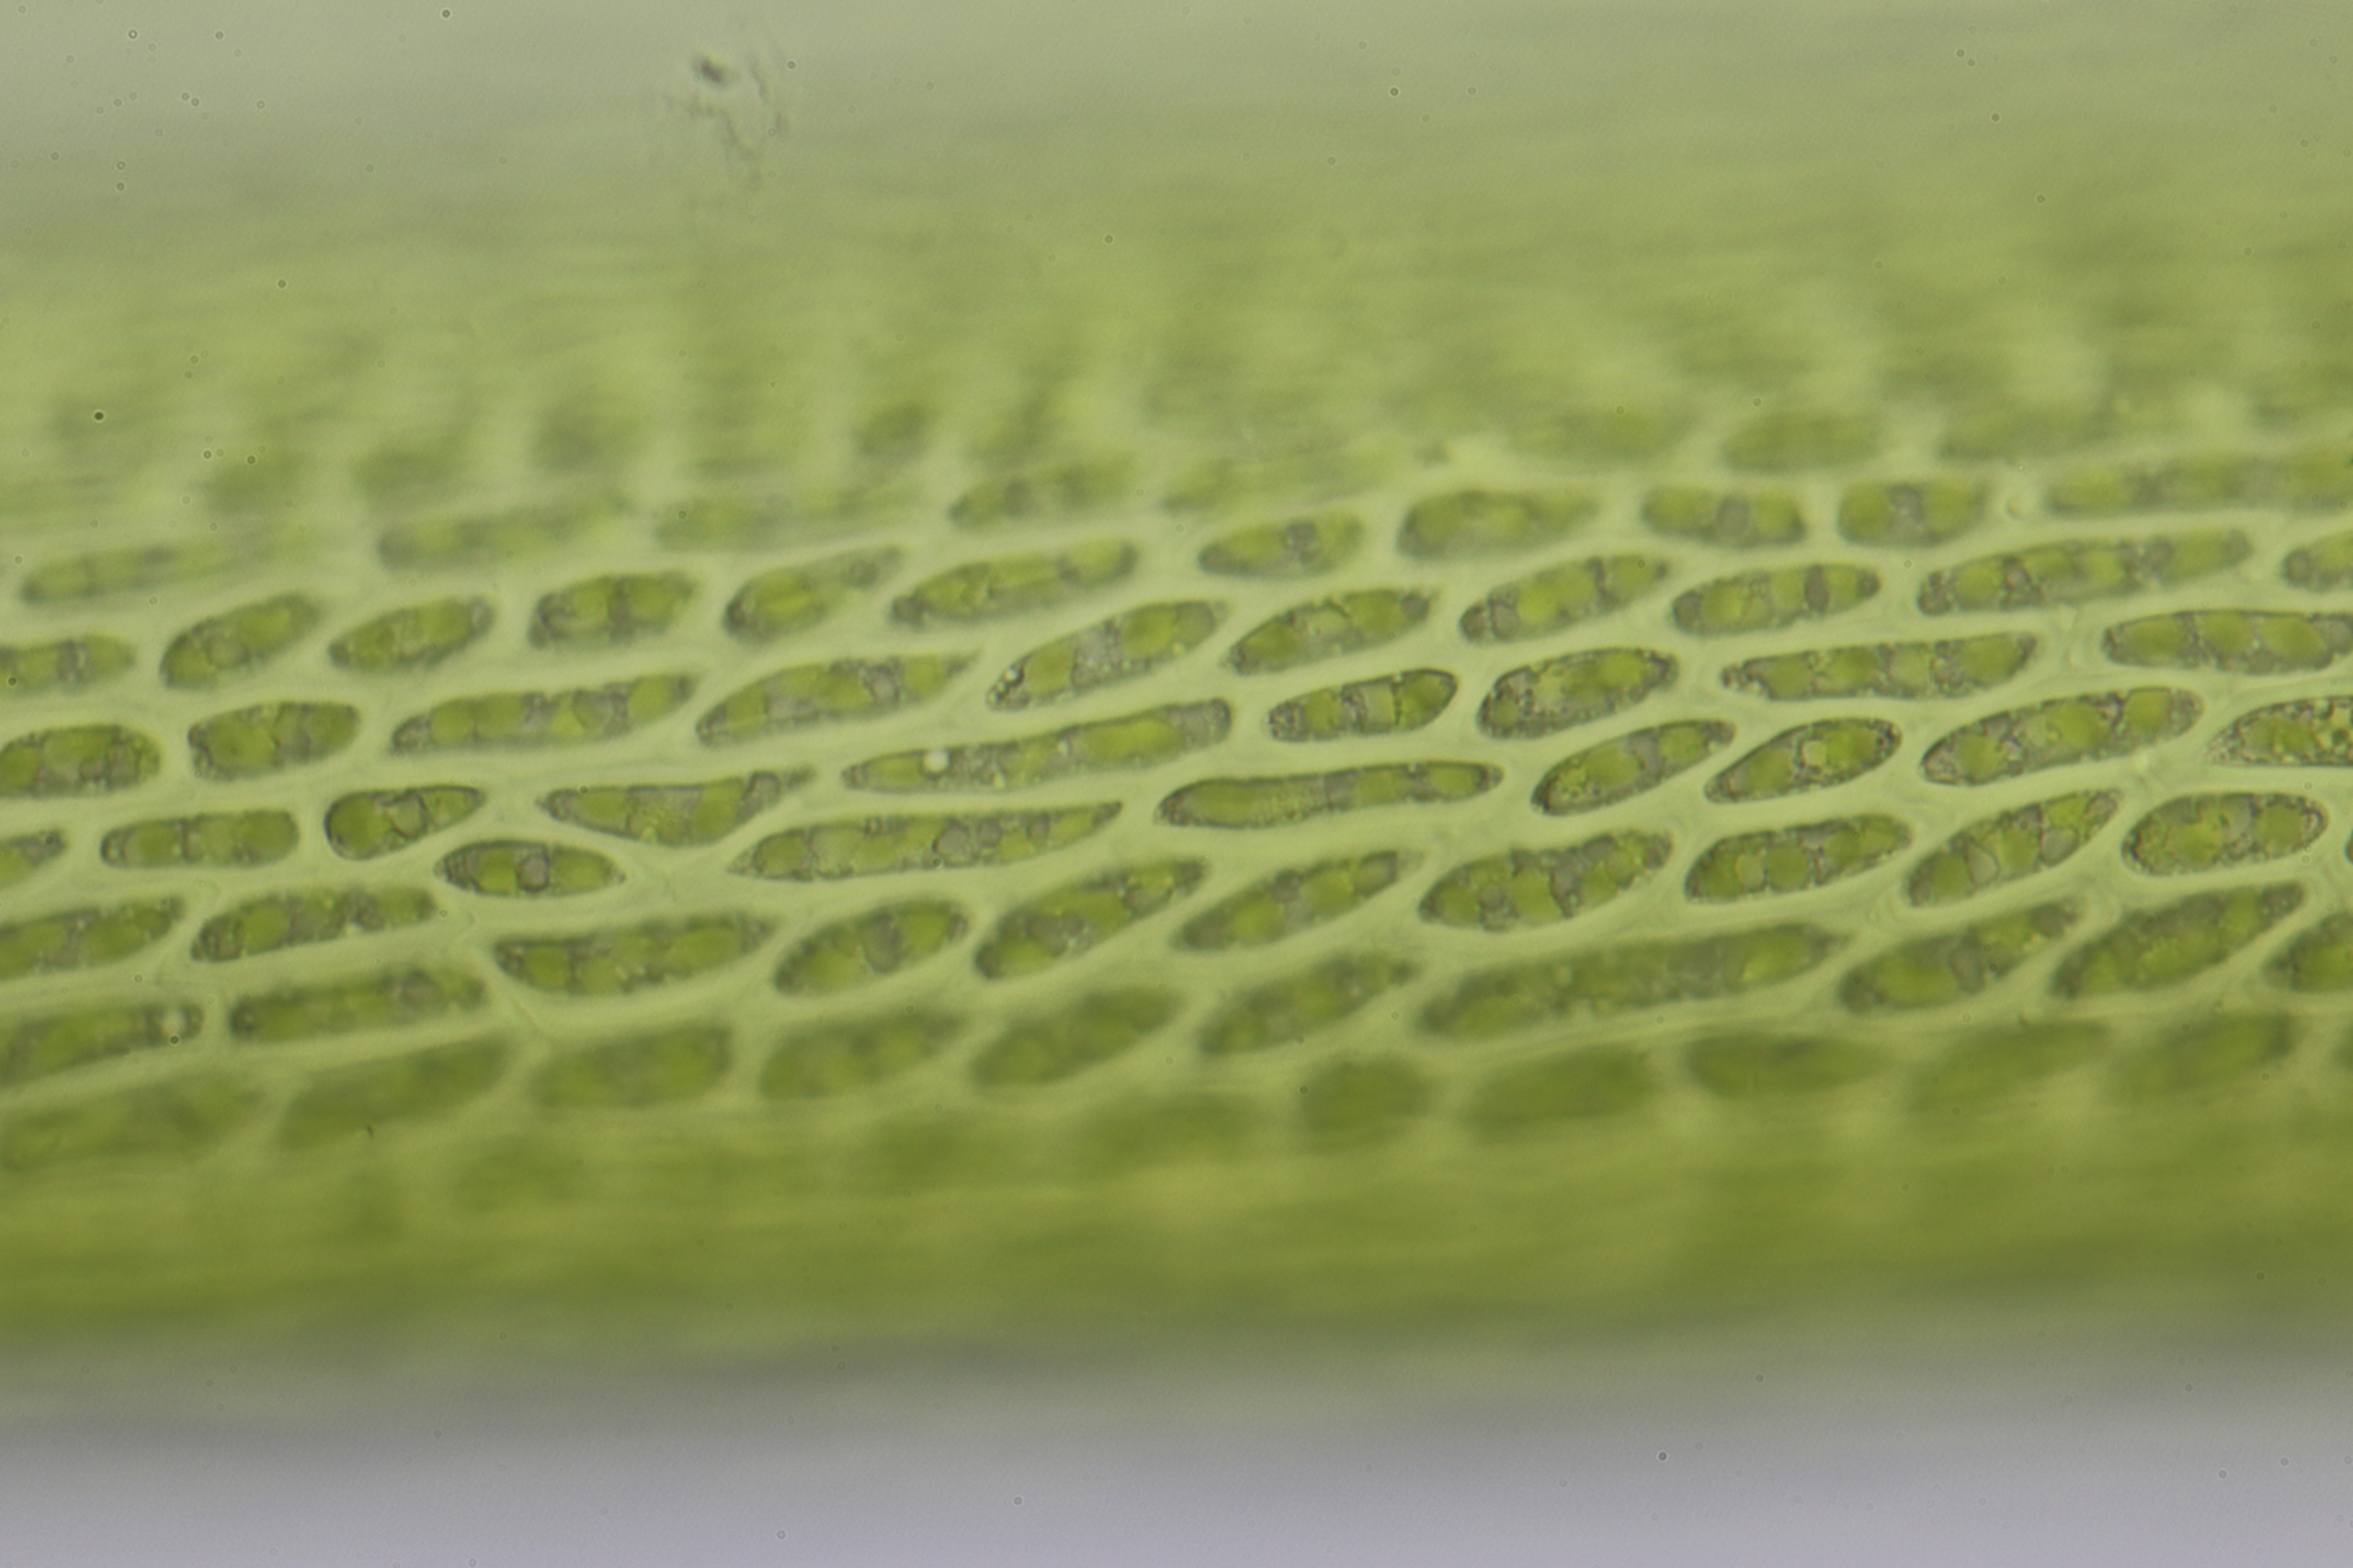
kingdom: Plantae
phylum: Bryophyta
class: Bryopsida
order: Scouleriales
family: Flexitrichaceae
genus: Flexitrichum
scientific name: Flexitrichum flexicaule
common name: Kalk-hårtand
